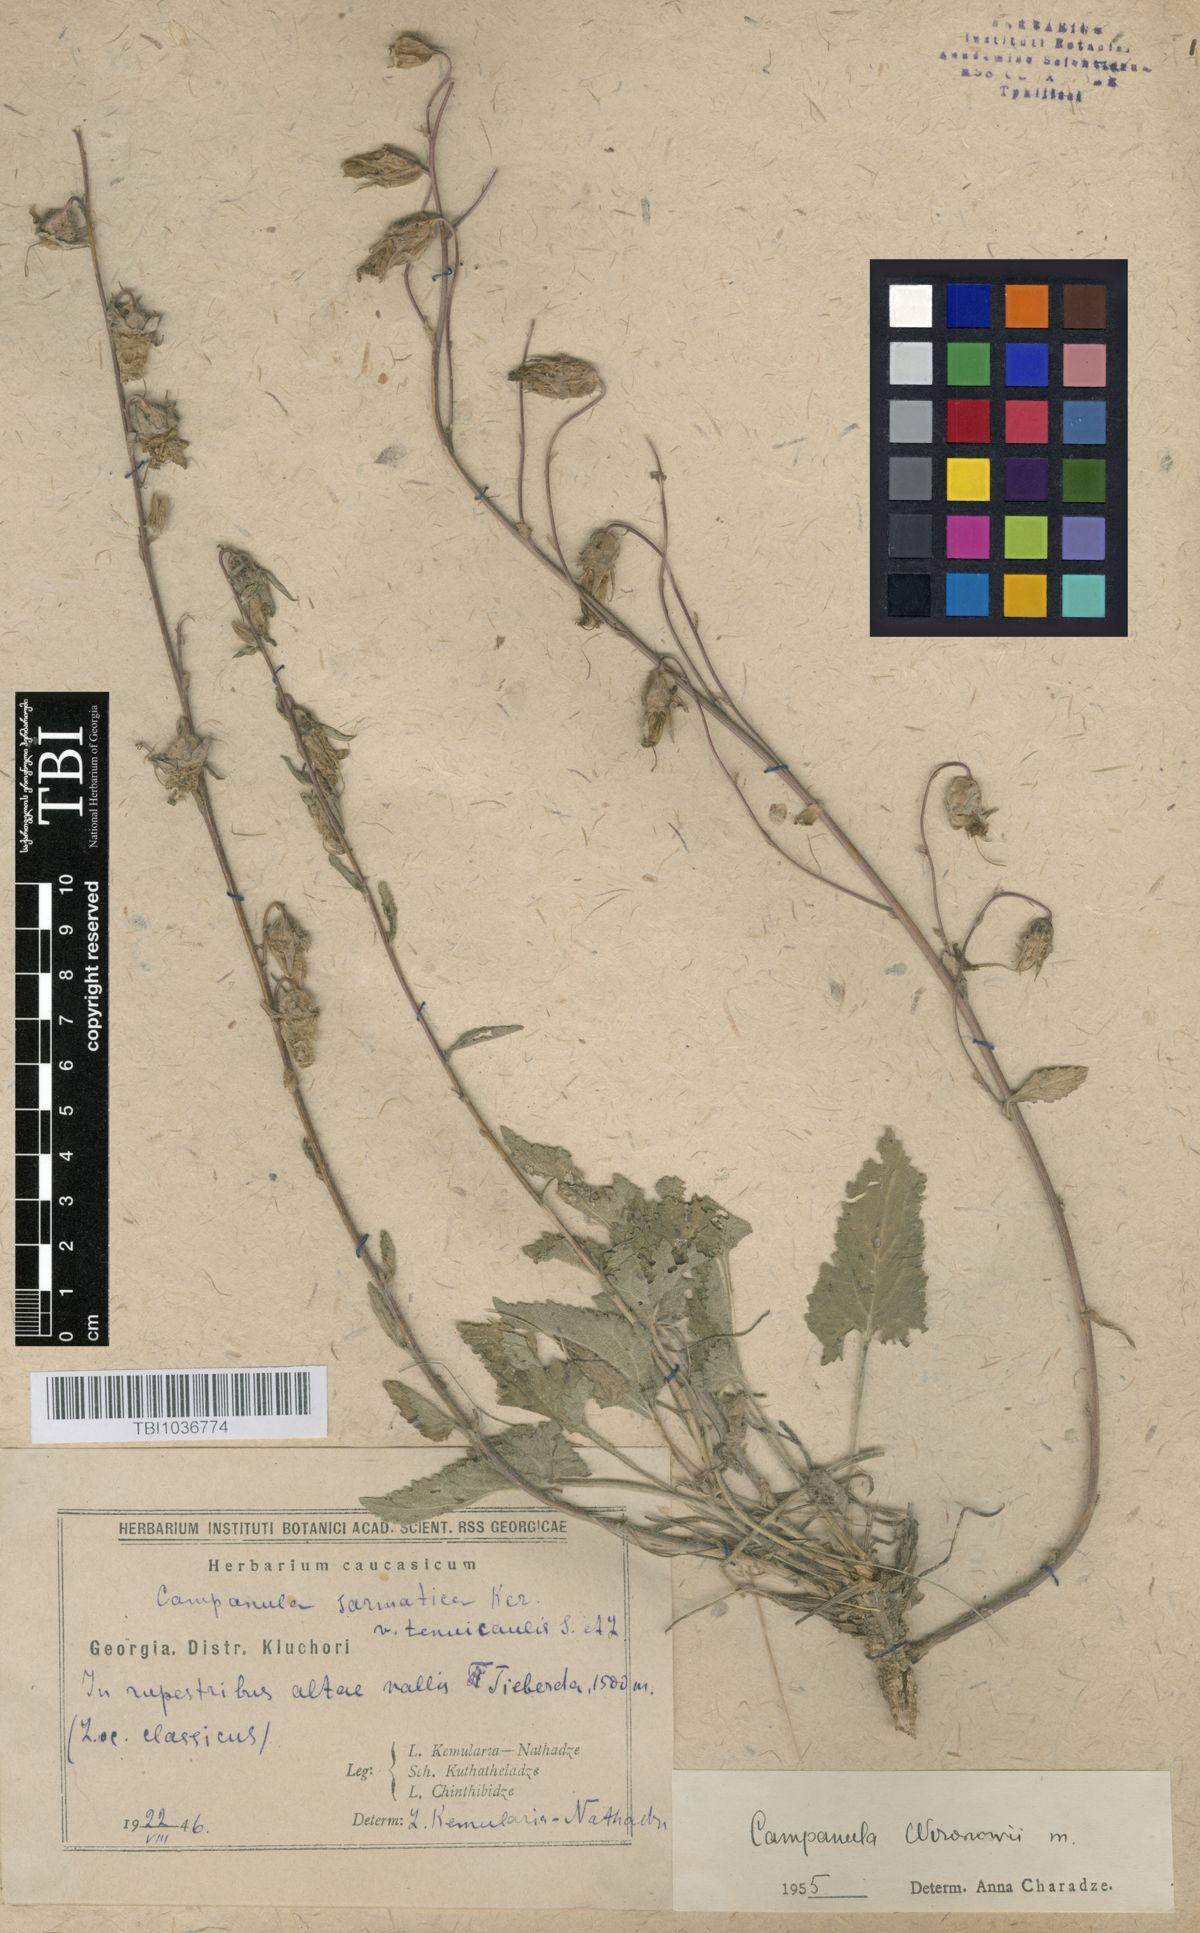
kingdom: Plantae
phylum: Tracheophyta
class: Magnoliopsida
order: Asterales
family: Campanulaceae
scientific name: Campanulaceae
